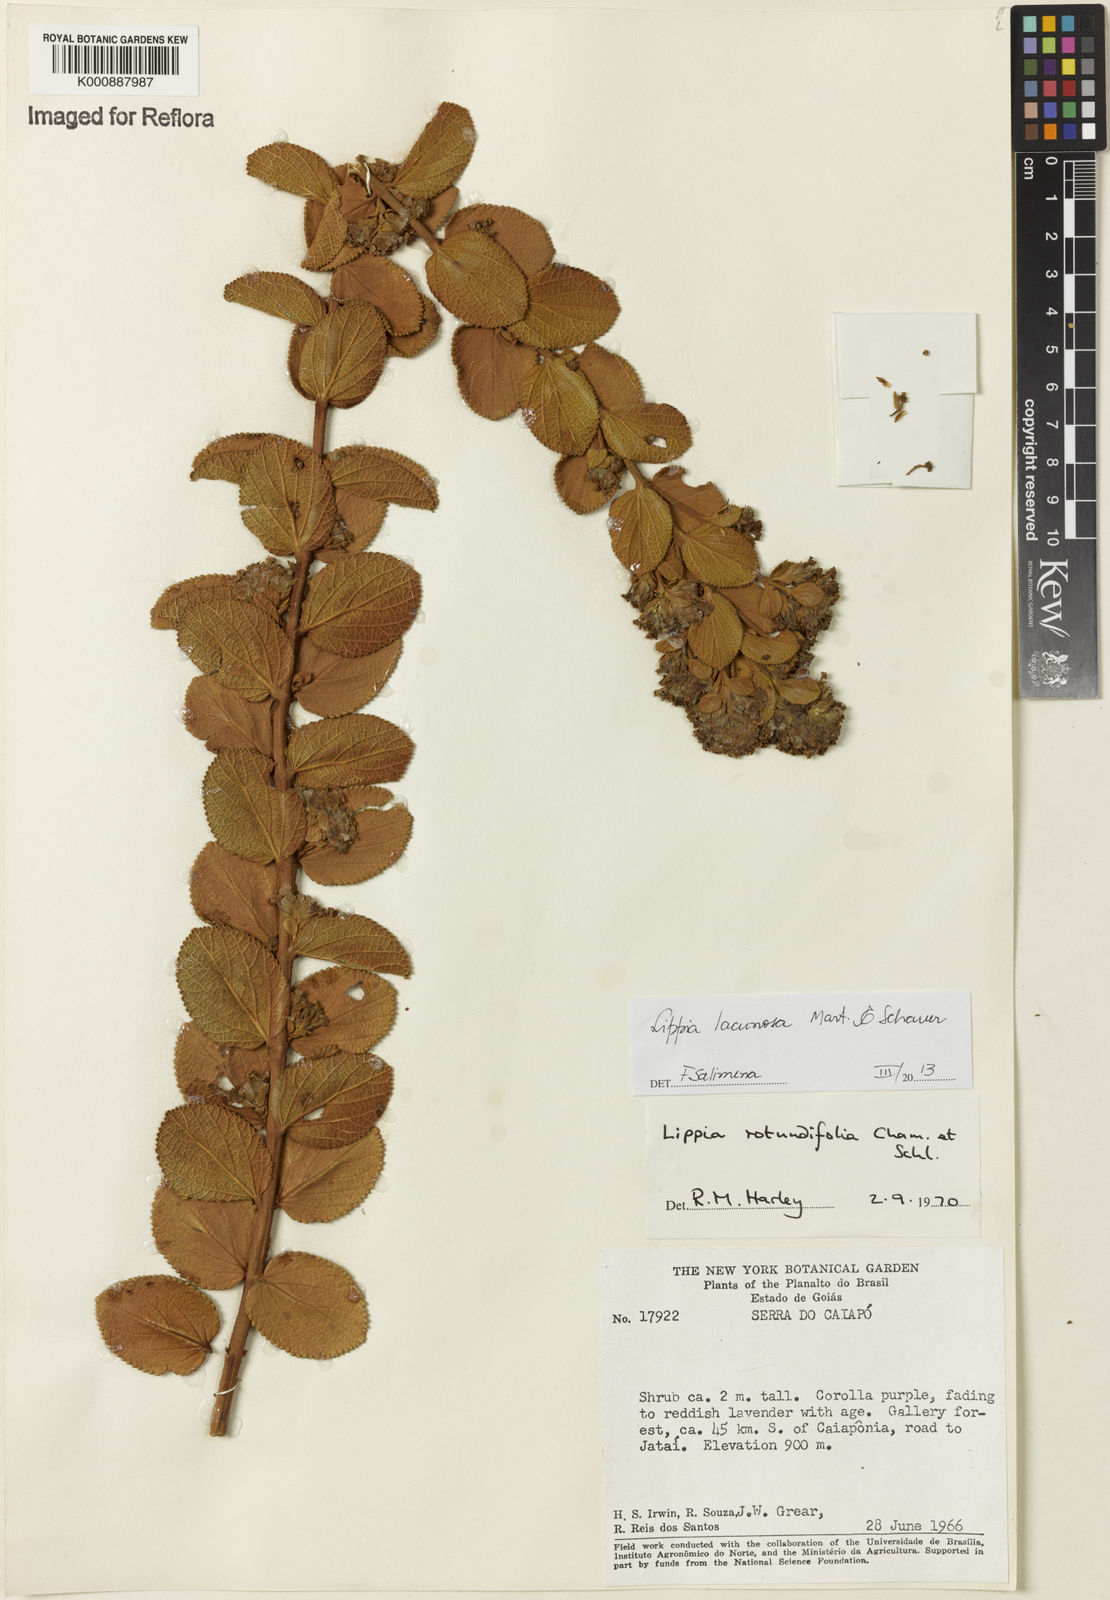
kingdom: Plantae
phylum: Tracheophyta
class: Magnoliopsida
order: Lamiales
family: Verbenaceae
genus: Lippia
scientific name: Lippia lacunosa
